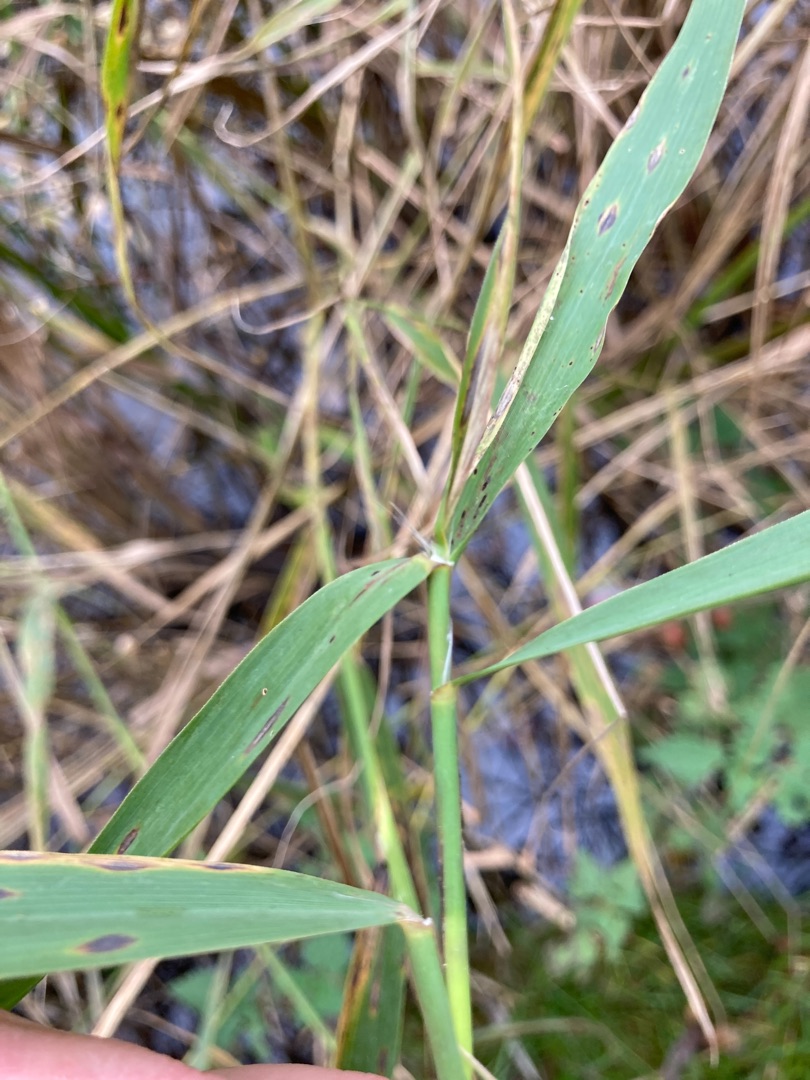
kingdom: Plantae
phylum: Tracheophyta
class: Liliopsida
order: Poales
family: Poaceae
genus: Phragmites
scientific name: Phragmites australis
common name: Tagrør
